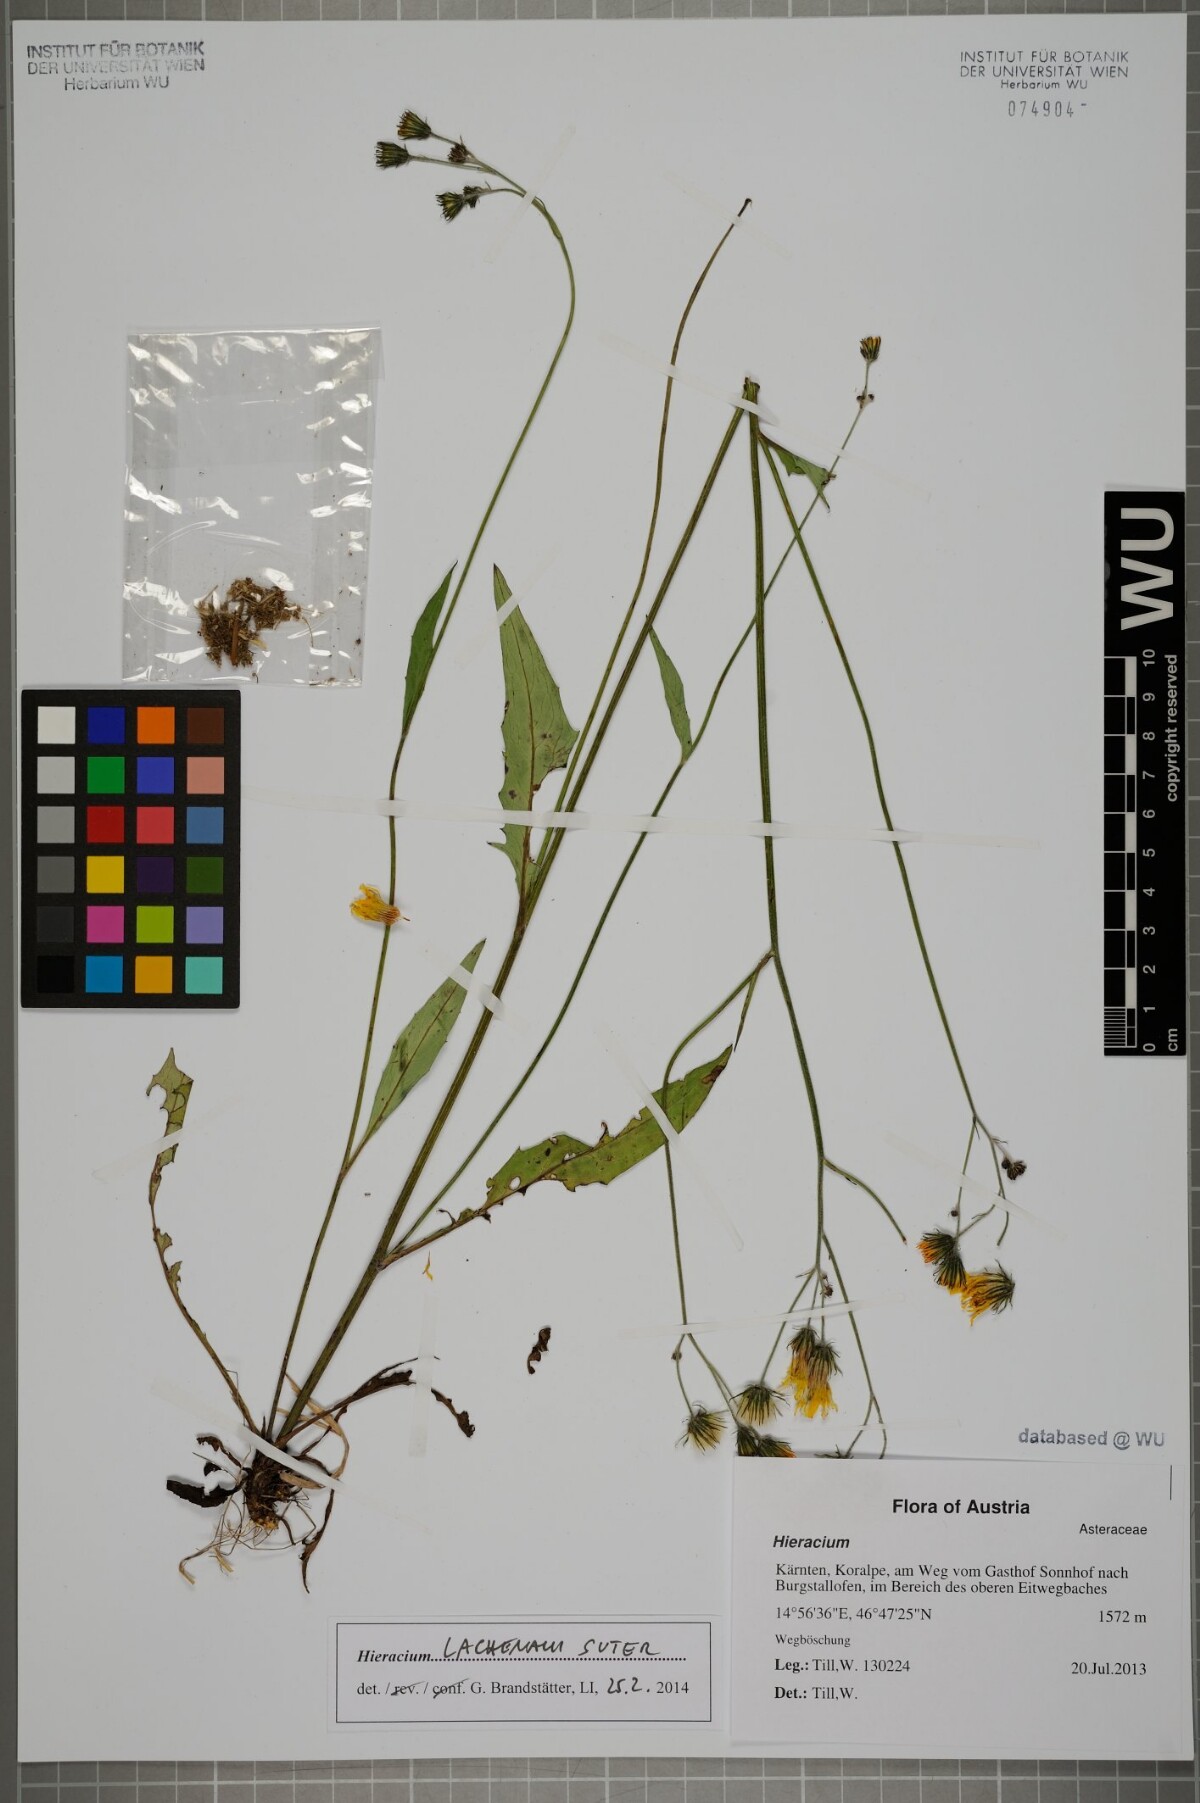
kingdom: Plantae
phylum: Tracheophyta
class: Magnoliopsida
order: Asterales
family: Asteraceae
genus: Hieracium
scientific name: Hieracium lachenalii
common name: Common hawkweed
